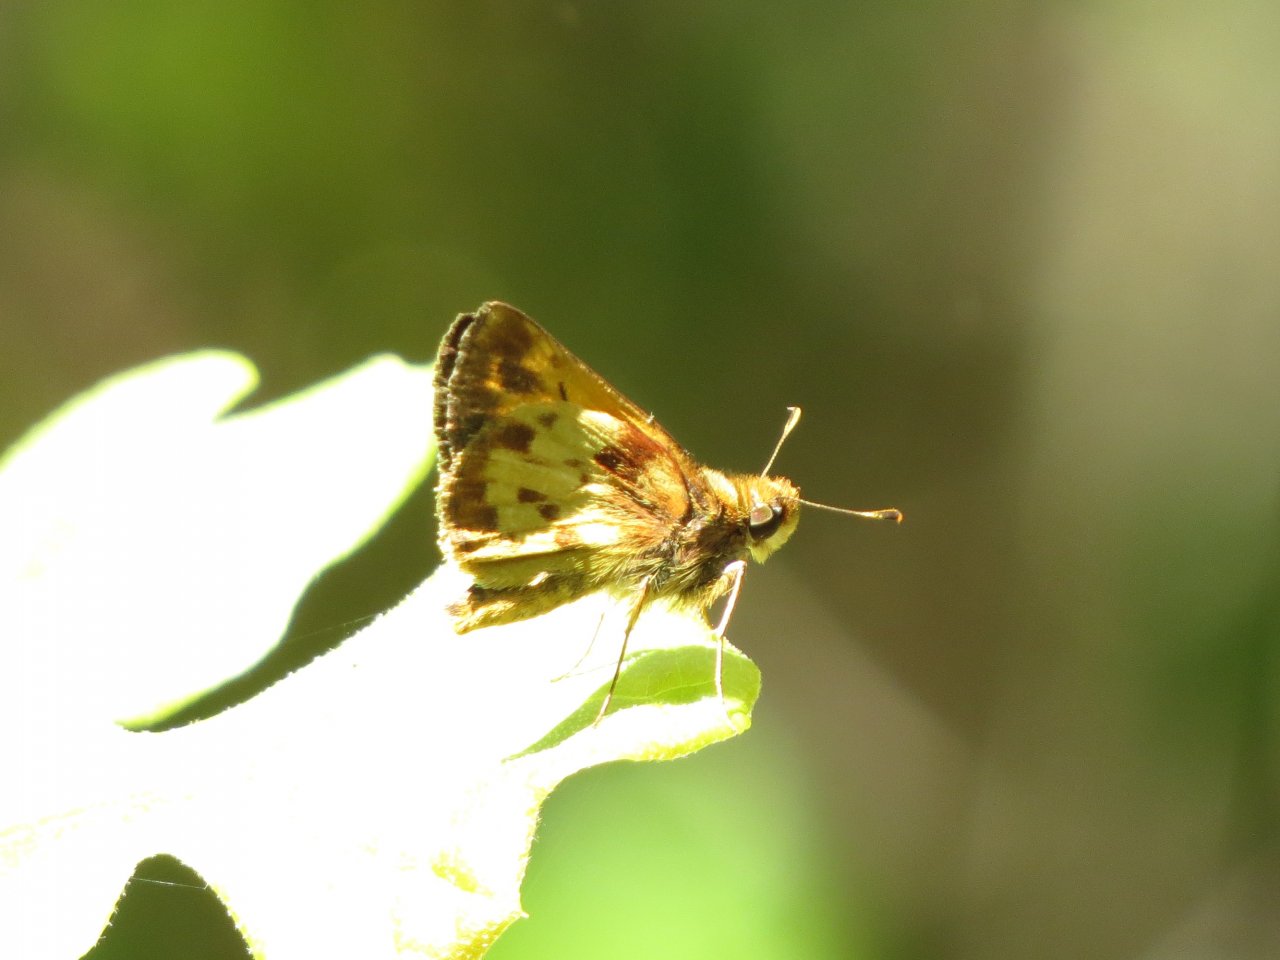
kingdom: Animalia
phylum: Arthropoda
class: Insecta
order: Lepidoptera
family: Hesperiidae
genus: Lon
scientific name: Lon zabulon
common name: Zabulon Skipper
